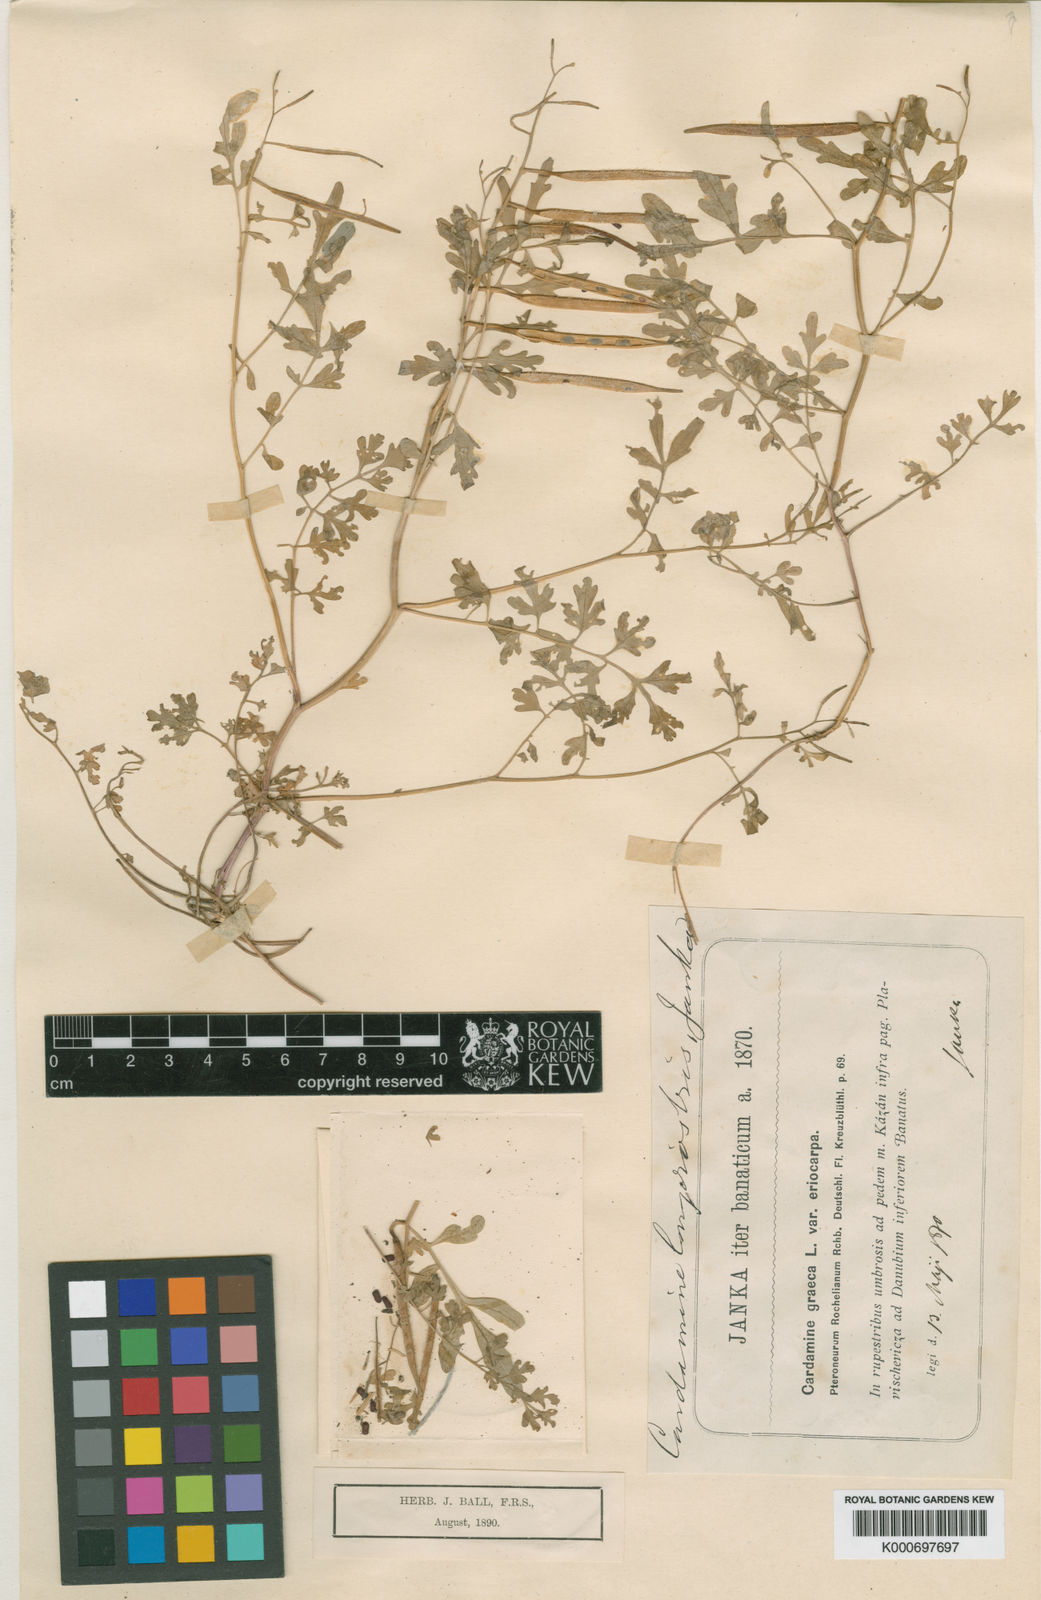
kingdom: Plantae
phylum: Tracheophyta
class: Magnoliopsida
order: Brassicales
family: Brassicaceae
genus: Cardamine
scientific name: Cardamine graeca
